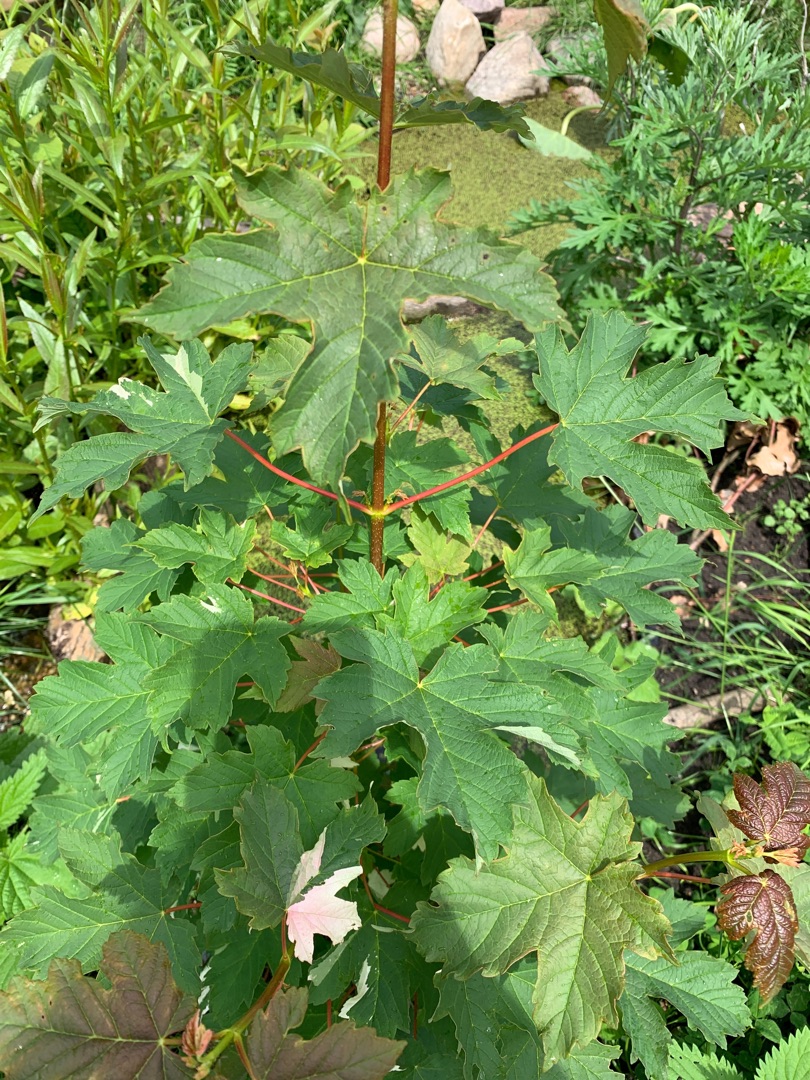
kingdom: Plantae
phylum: Tracheophyta
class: Magnoliopsida
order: Sapindales
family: Sapindaceae
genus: Acer
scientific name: Acer pseudoplatanus
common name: Ahorn
